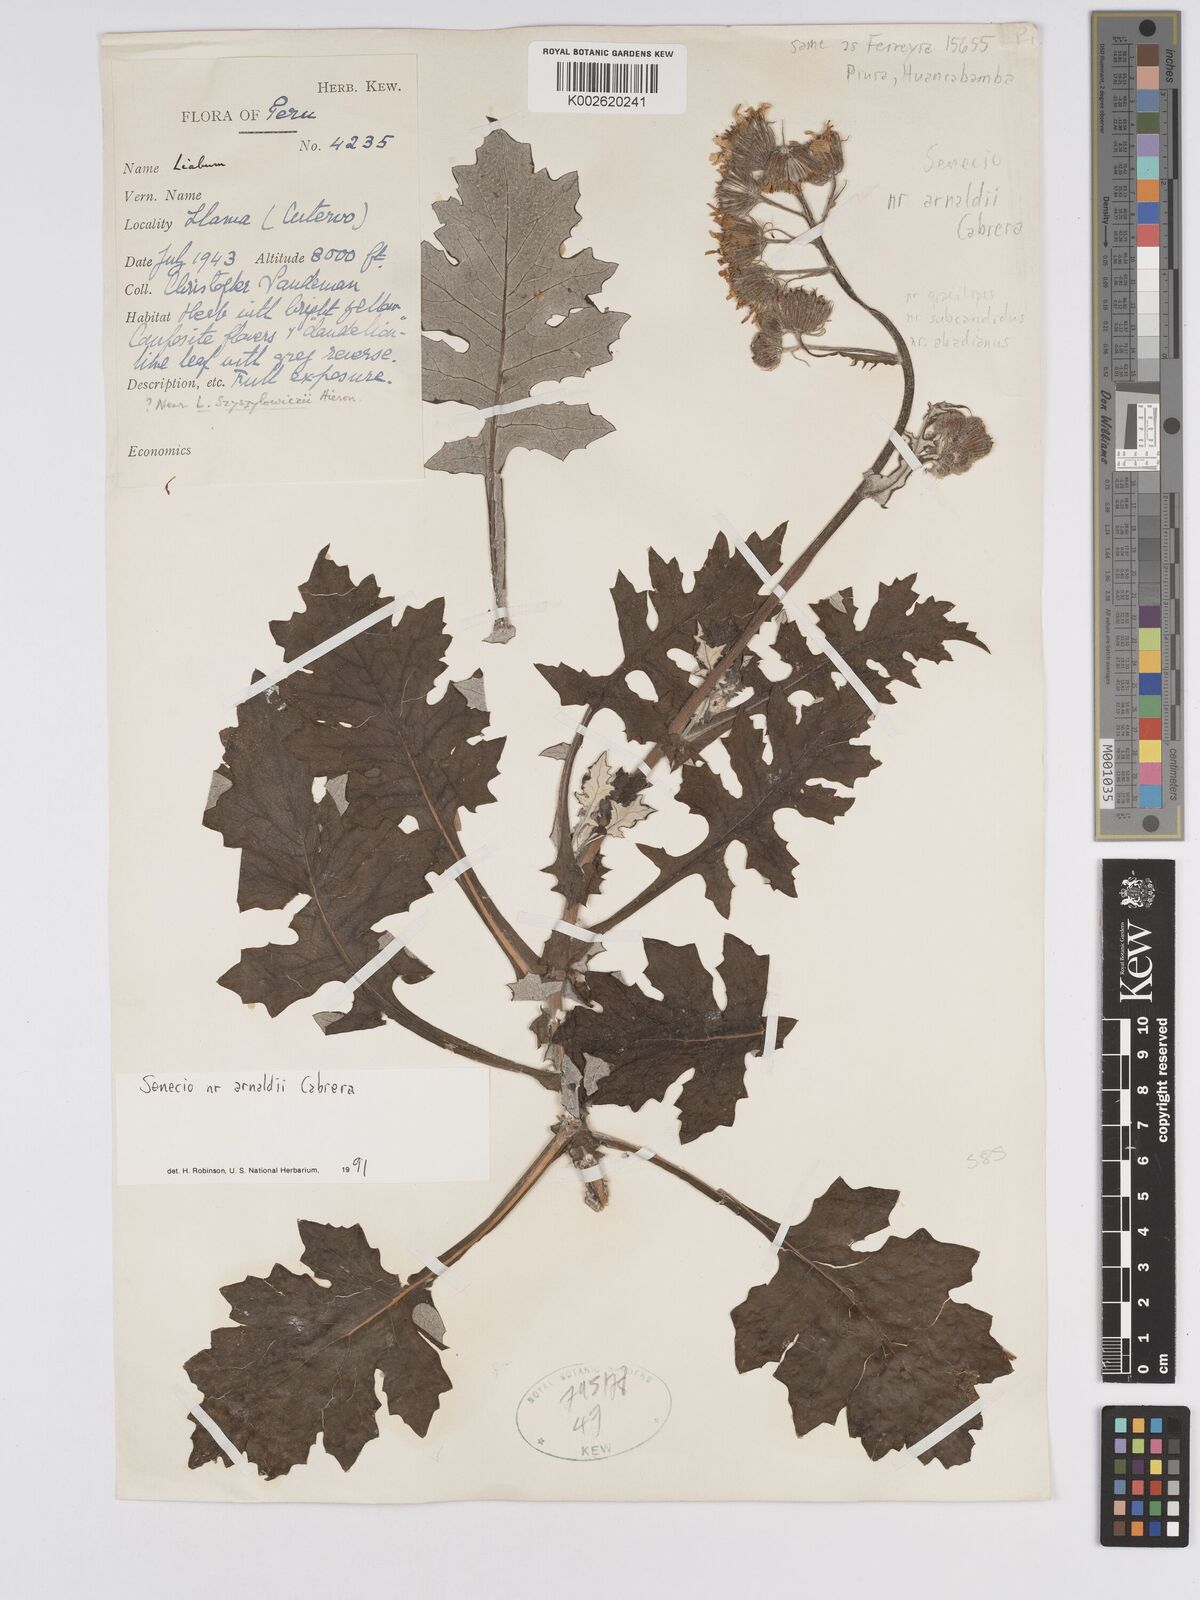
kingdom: Plantae
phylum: Tracheophyta
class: Magnoliopsida
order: Asterales
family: Asteraceae
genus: Lomanthus
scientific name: Lomanthus arnaldii
